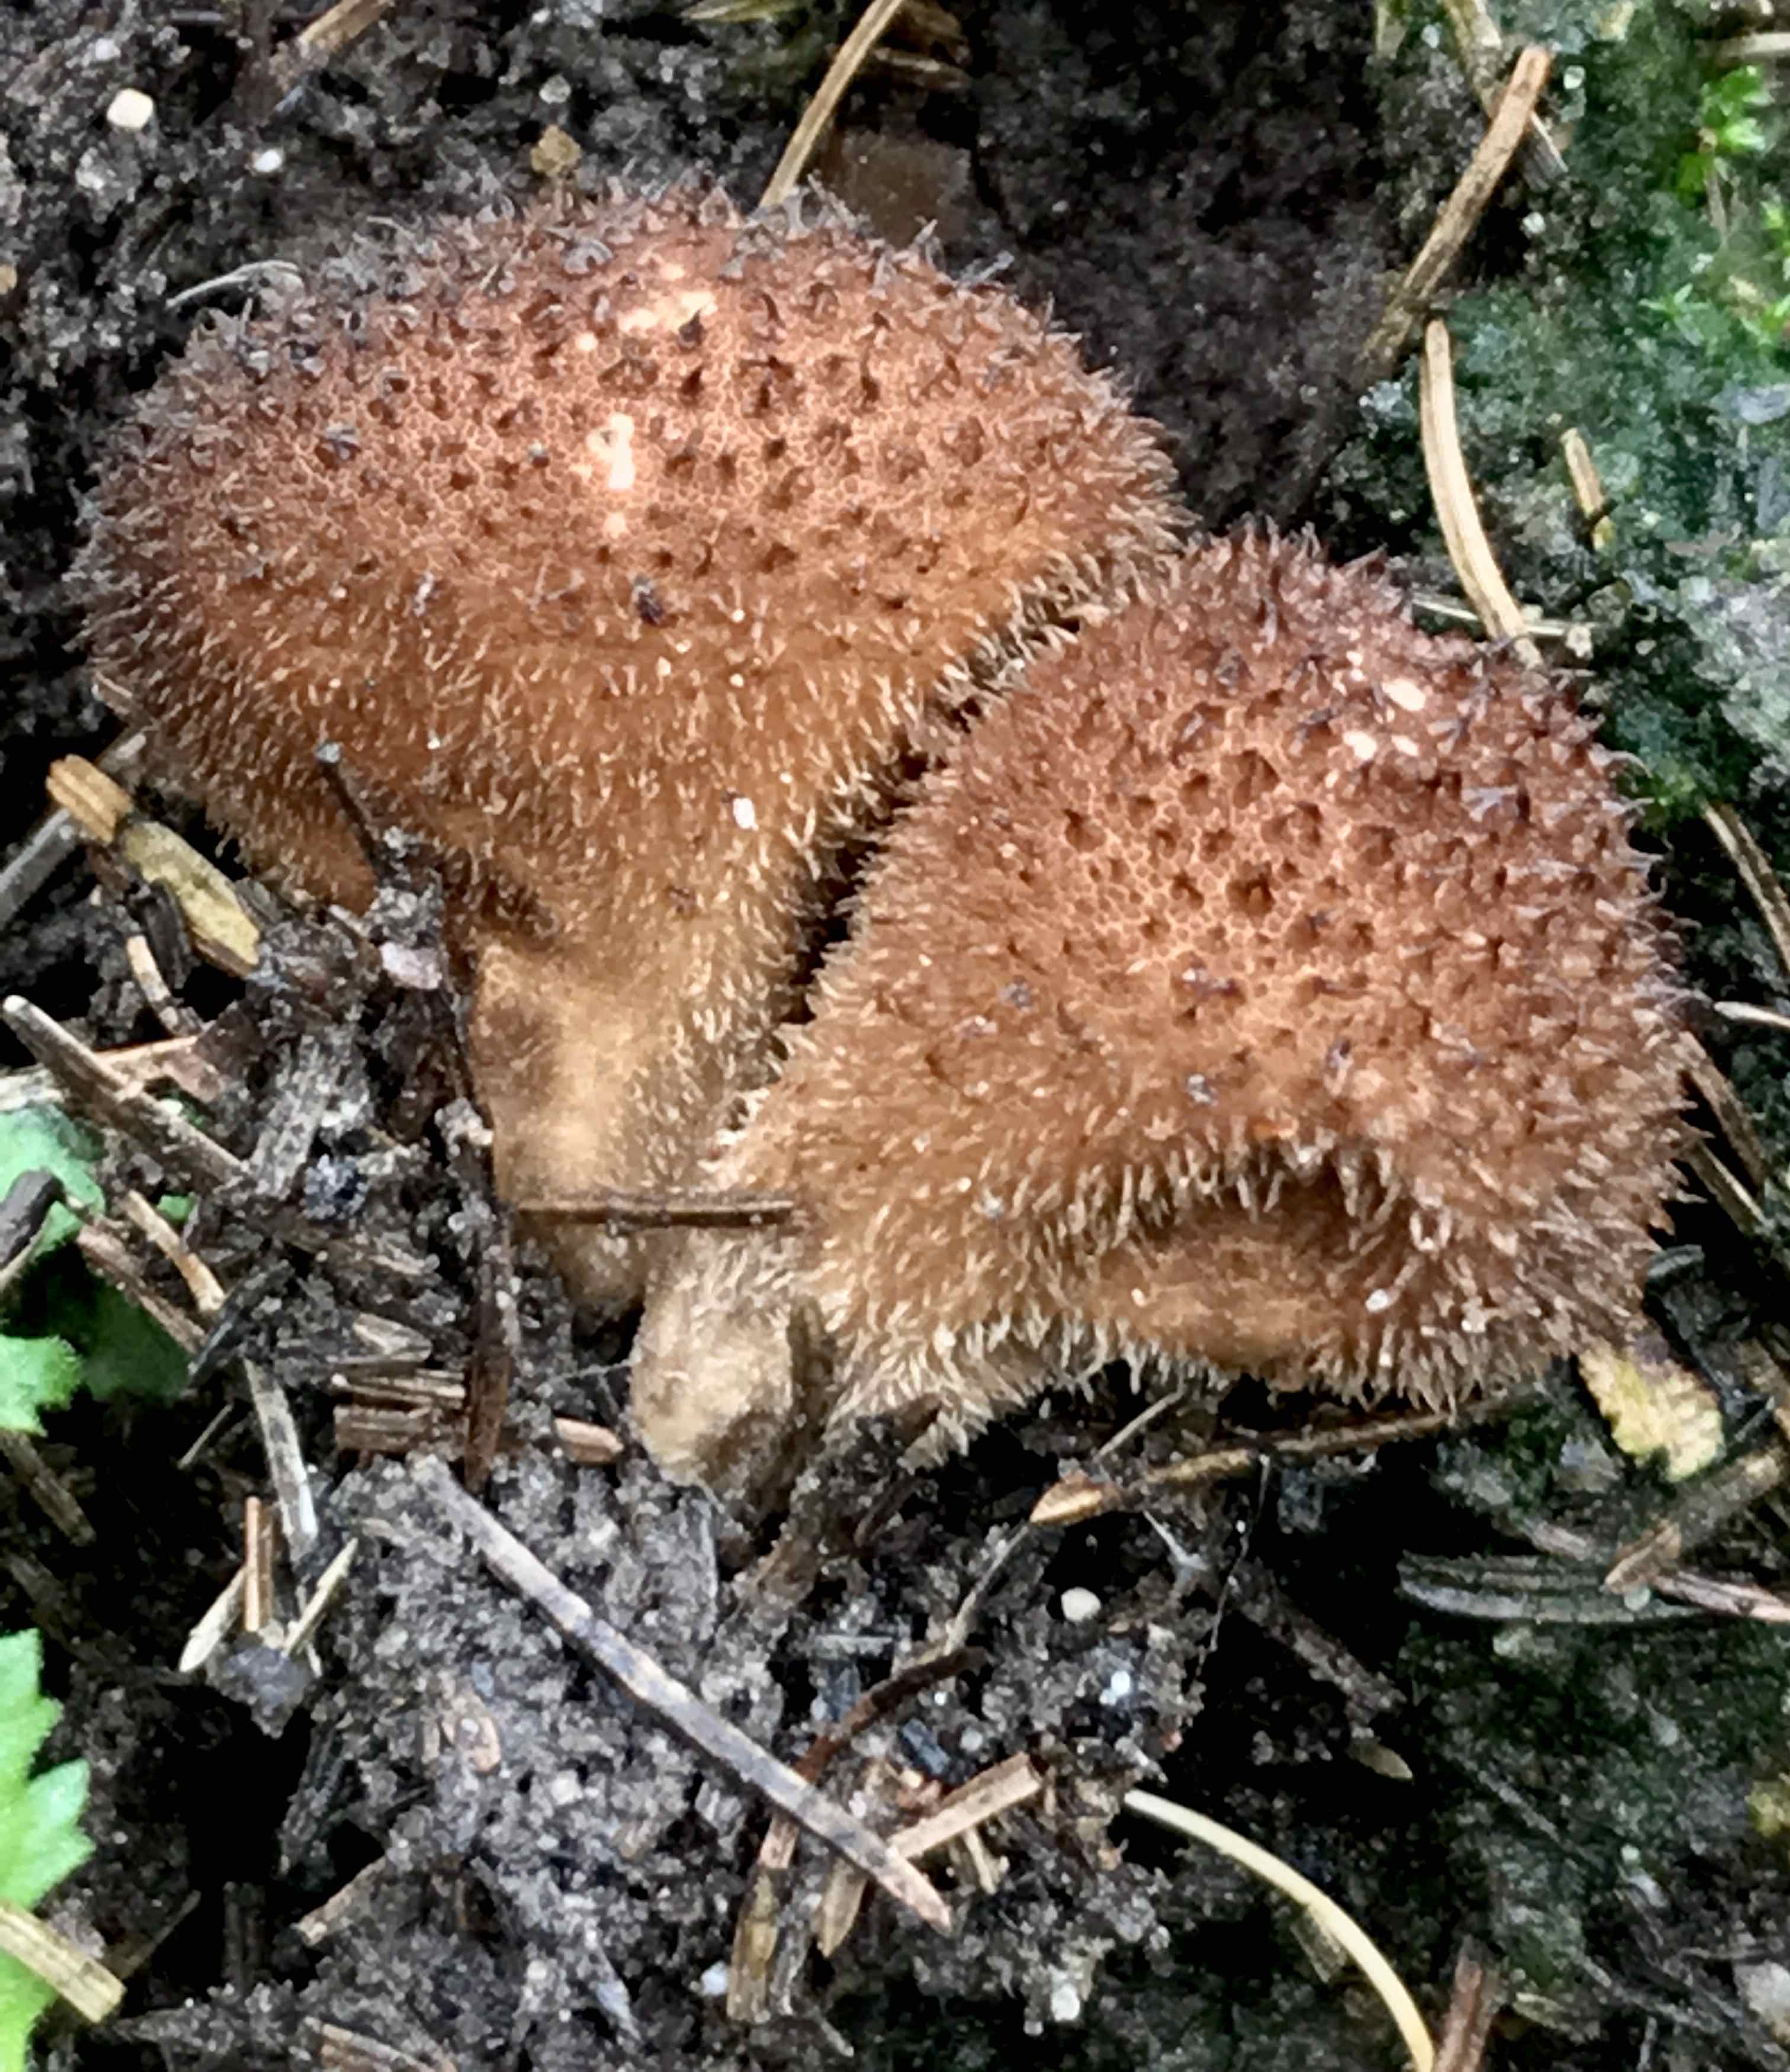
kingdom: Fungi
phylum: Basidiomycota
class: Agaricomycetes
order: Agaricales
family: Lycoperdaceae
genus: Lycoperdon
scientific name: Lycoperdon nigrescens
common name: sortagtig støvbold
